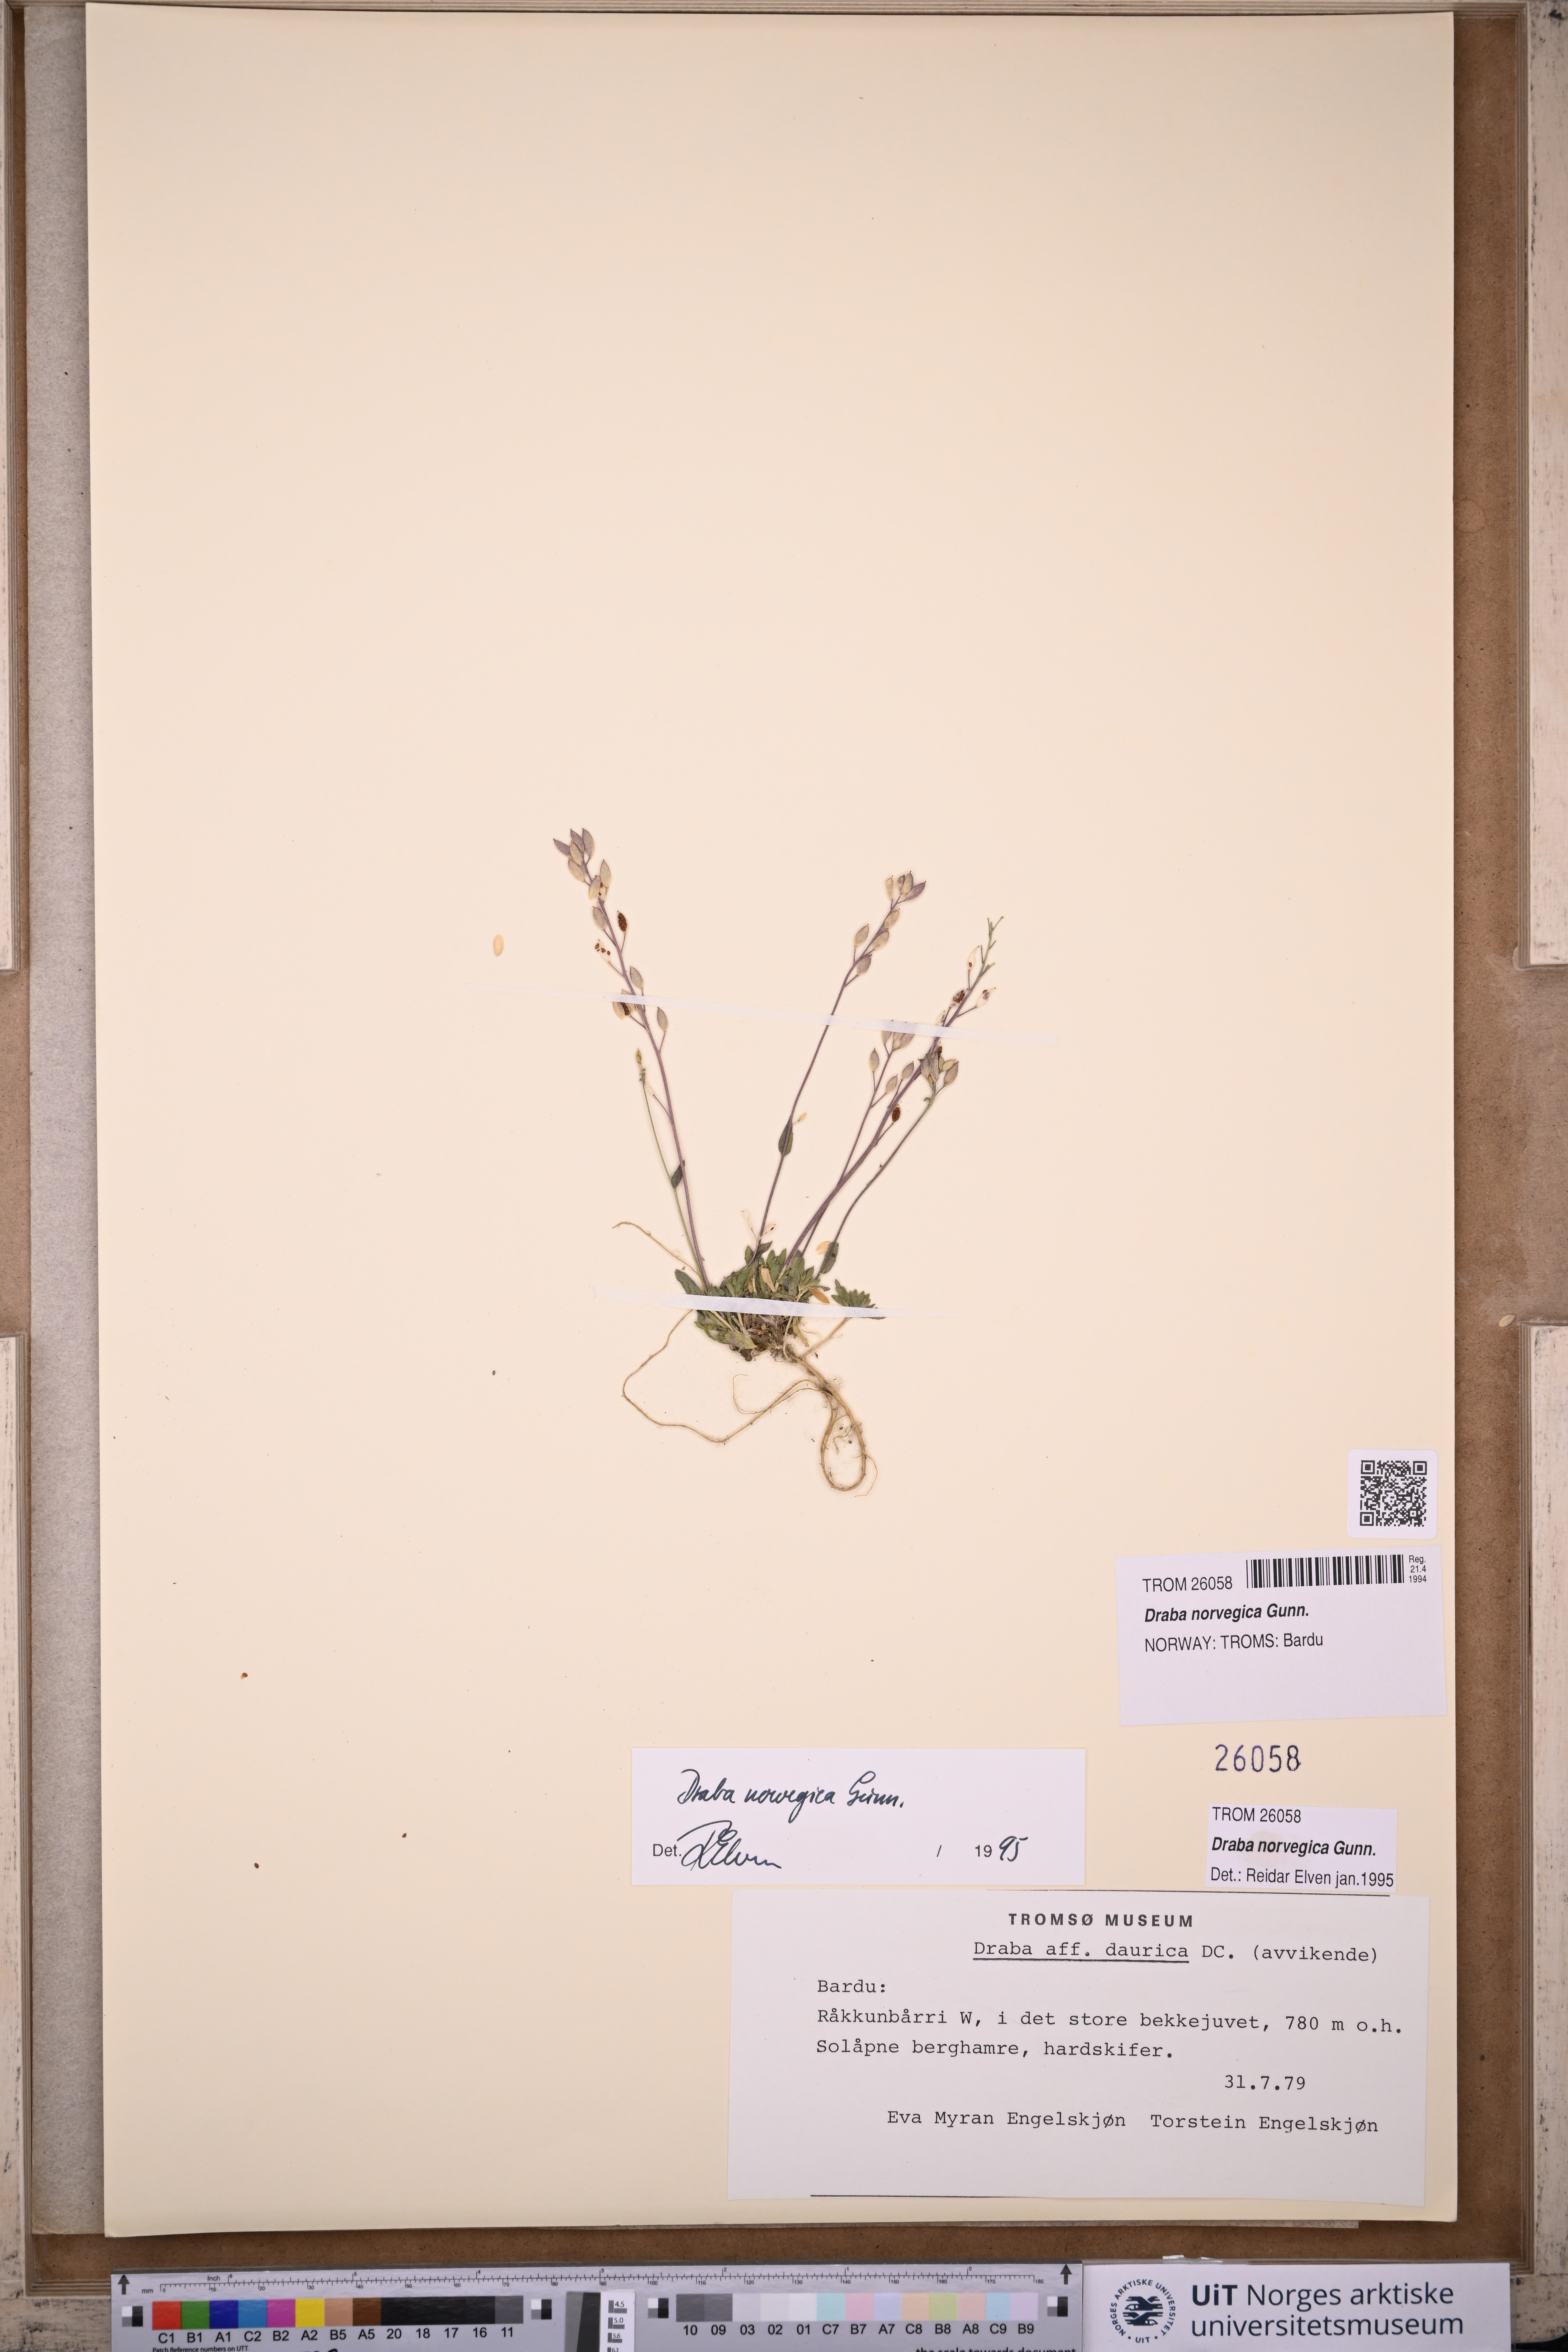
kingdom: Plantae
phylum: Tracheophyta
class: Magnoliopsida
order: Brassicales
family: Brassicaceae
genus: Draba
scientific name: Draba norvegica
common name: Rock whitlowgrass
